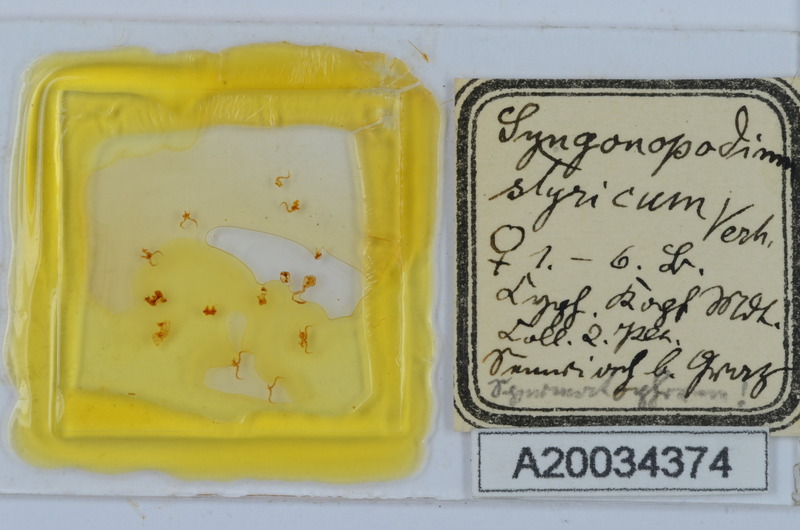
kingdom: Animalia
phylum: Arthropoda
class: Diplopoda
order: Chordeumatida
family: Attemsiidae
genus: Polyphematia
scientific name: Polyphematia moniliformis
